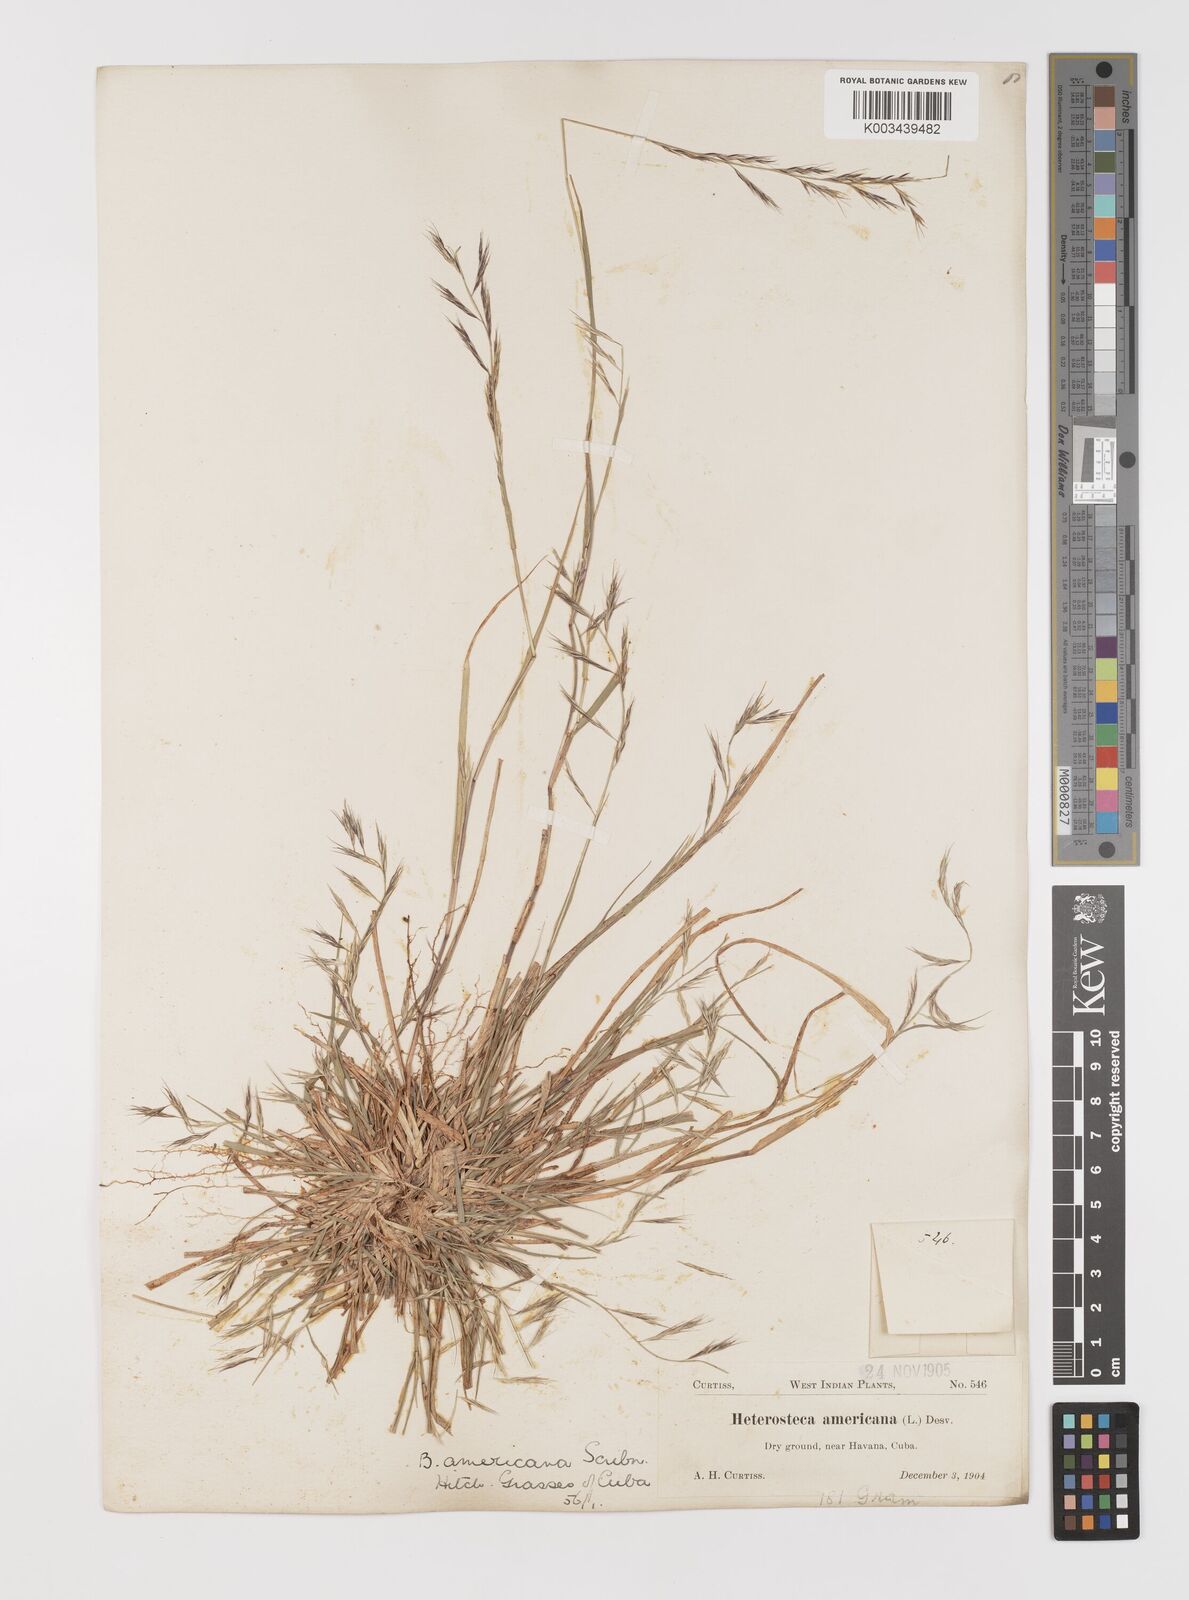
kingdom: Plantae
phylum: Tracheophyta
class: Liliopsida
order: Poales
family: Poaceae
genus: Bouteloua
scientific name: Bouteloua americana
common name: Mule grass
